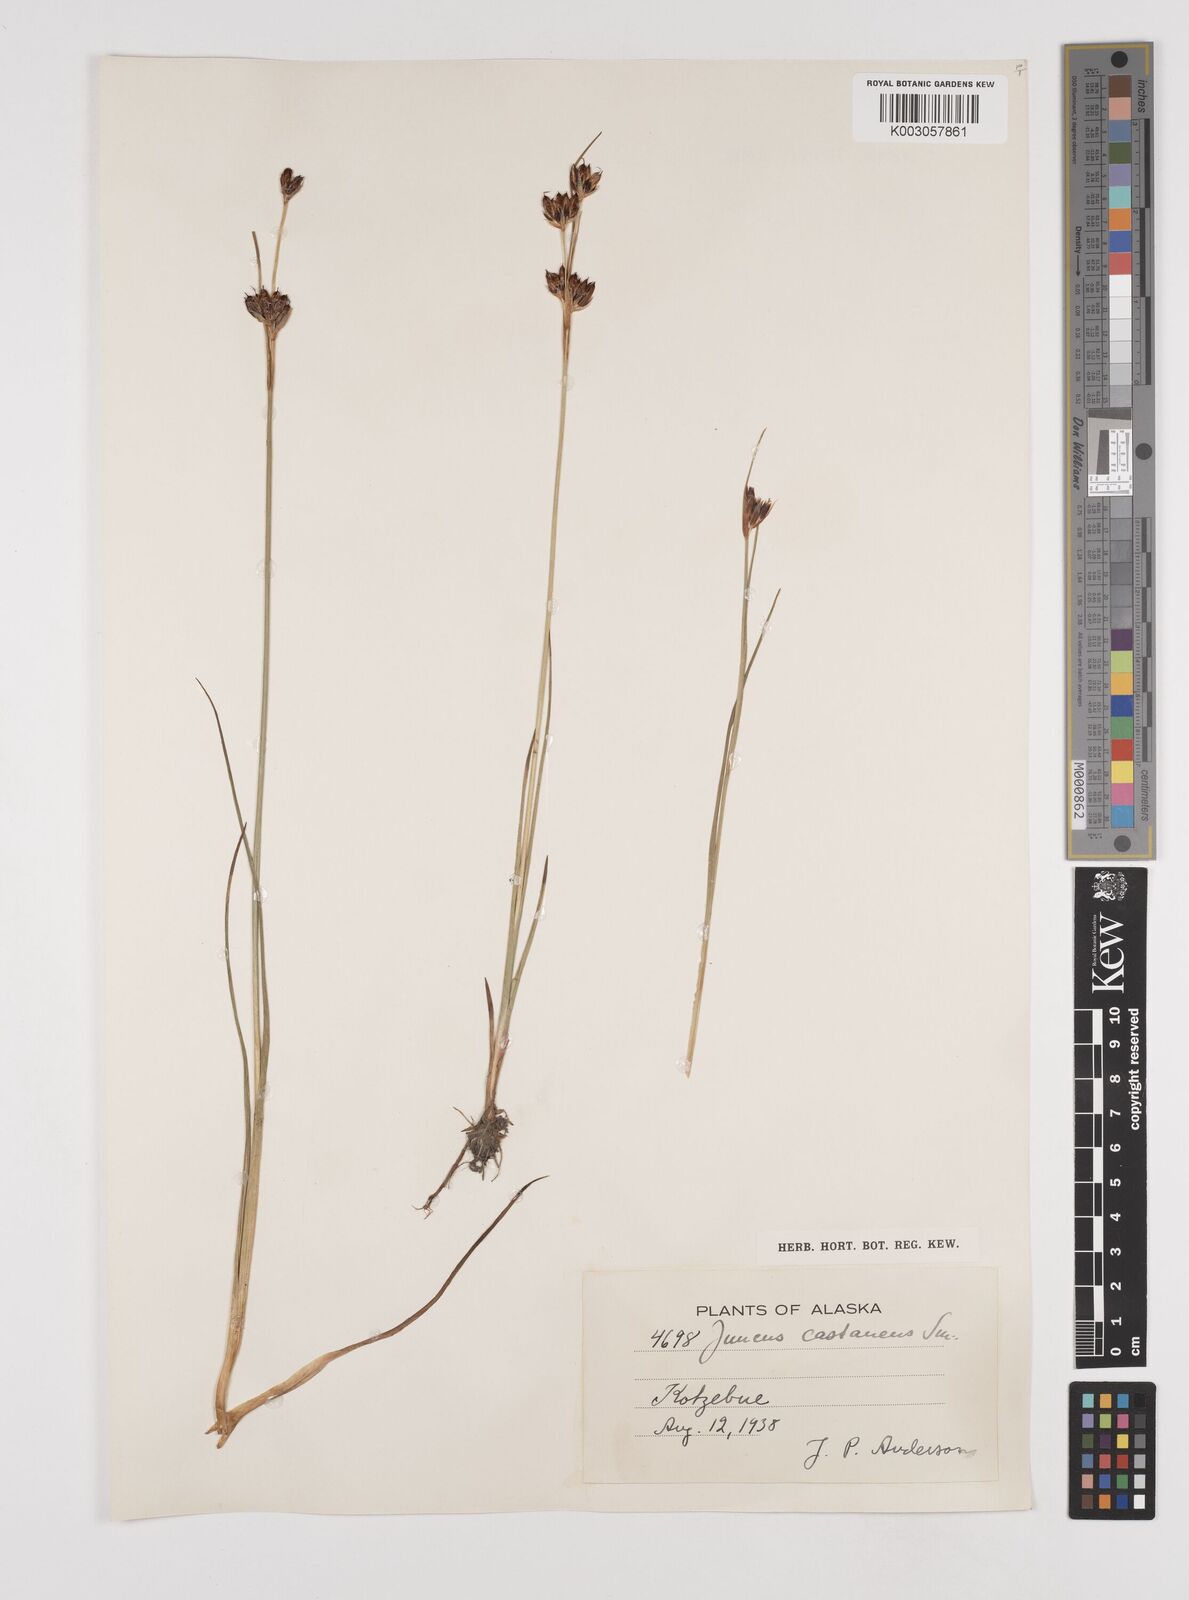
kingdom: Plantae
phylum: Tracheophyta
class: Liliopsida
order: Poales
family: Juncaceae
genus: Juncus
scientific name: Juncus castaneus
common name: Chestnut rush
